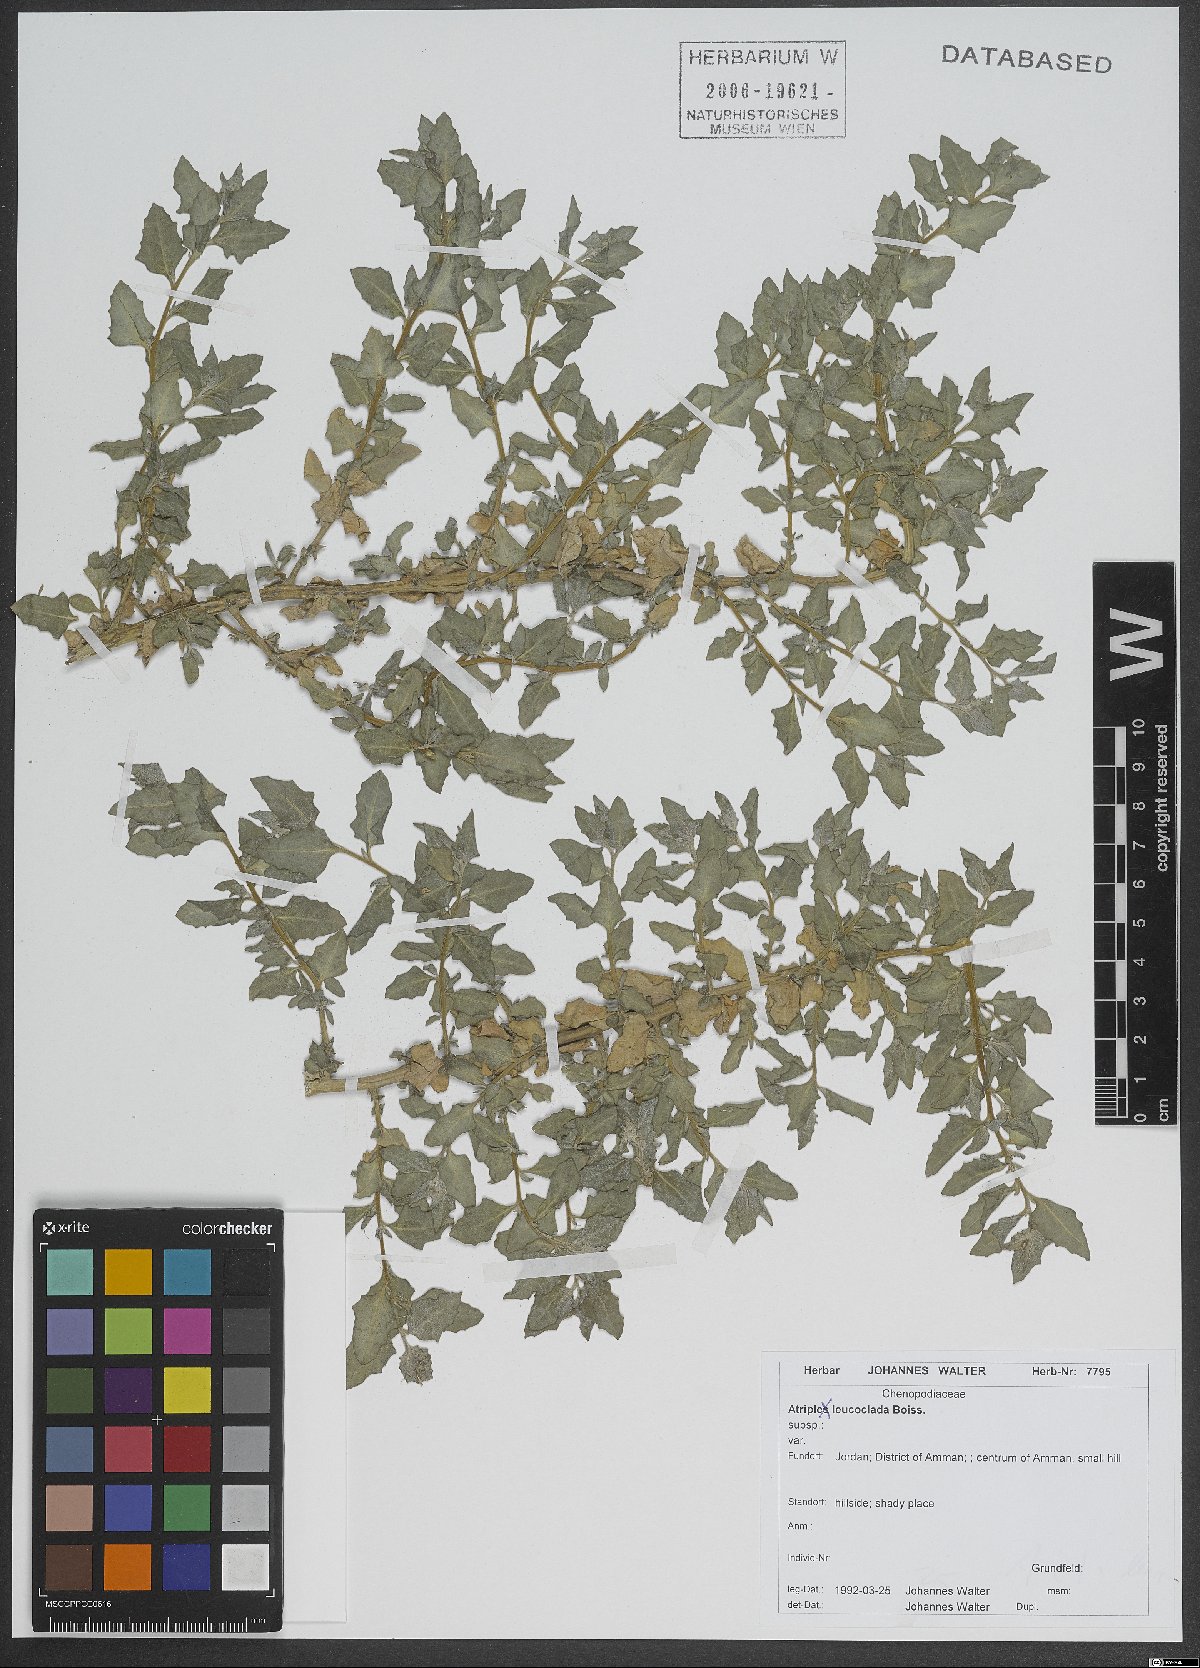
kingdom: Plantae
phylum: Tracheophyta
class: Magnoliopsida
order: Caryophyllales
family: Amaranthaceae
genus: Atriplex
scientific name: Atriplex turcomanica
